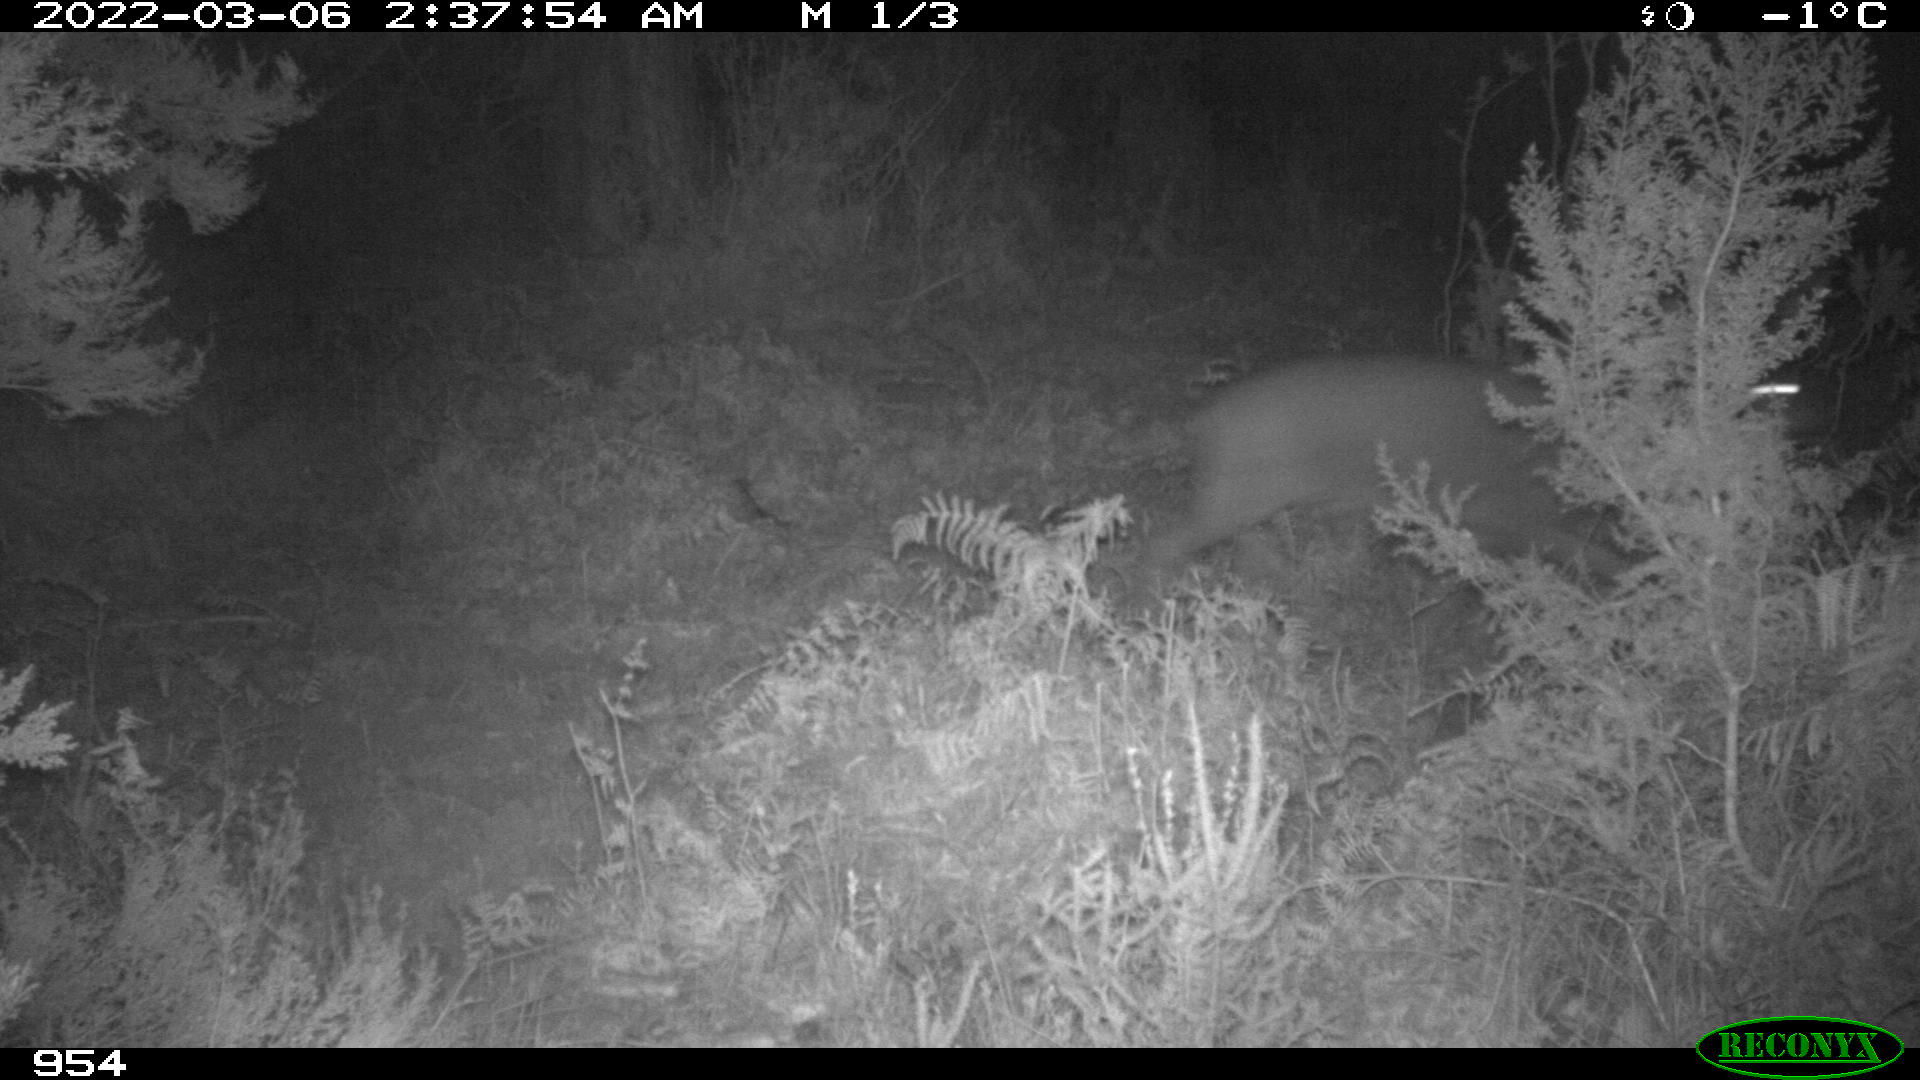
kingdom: Animalia
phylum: Chordata
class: Mammalia
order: Artiodactyla
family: Cervidae
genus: Capreolus
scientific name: Capreolus capreolus
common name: Western roe deer
